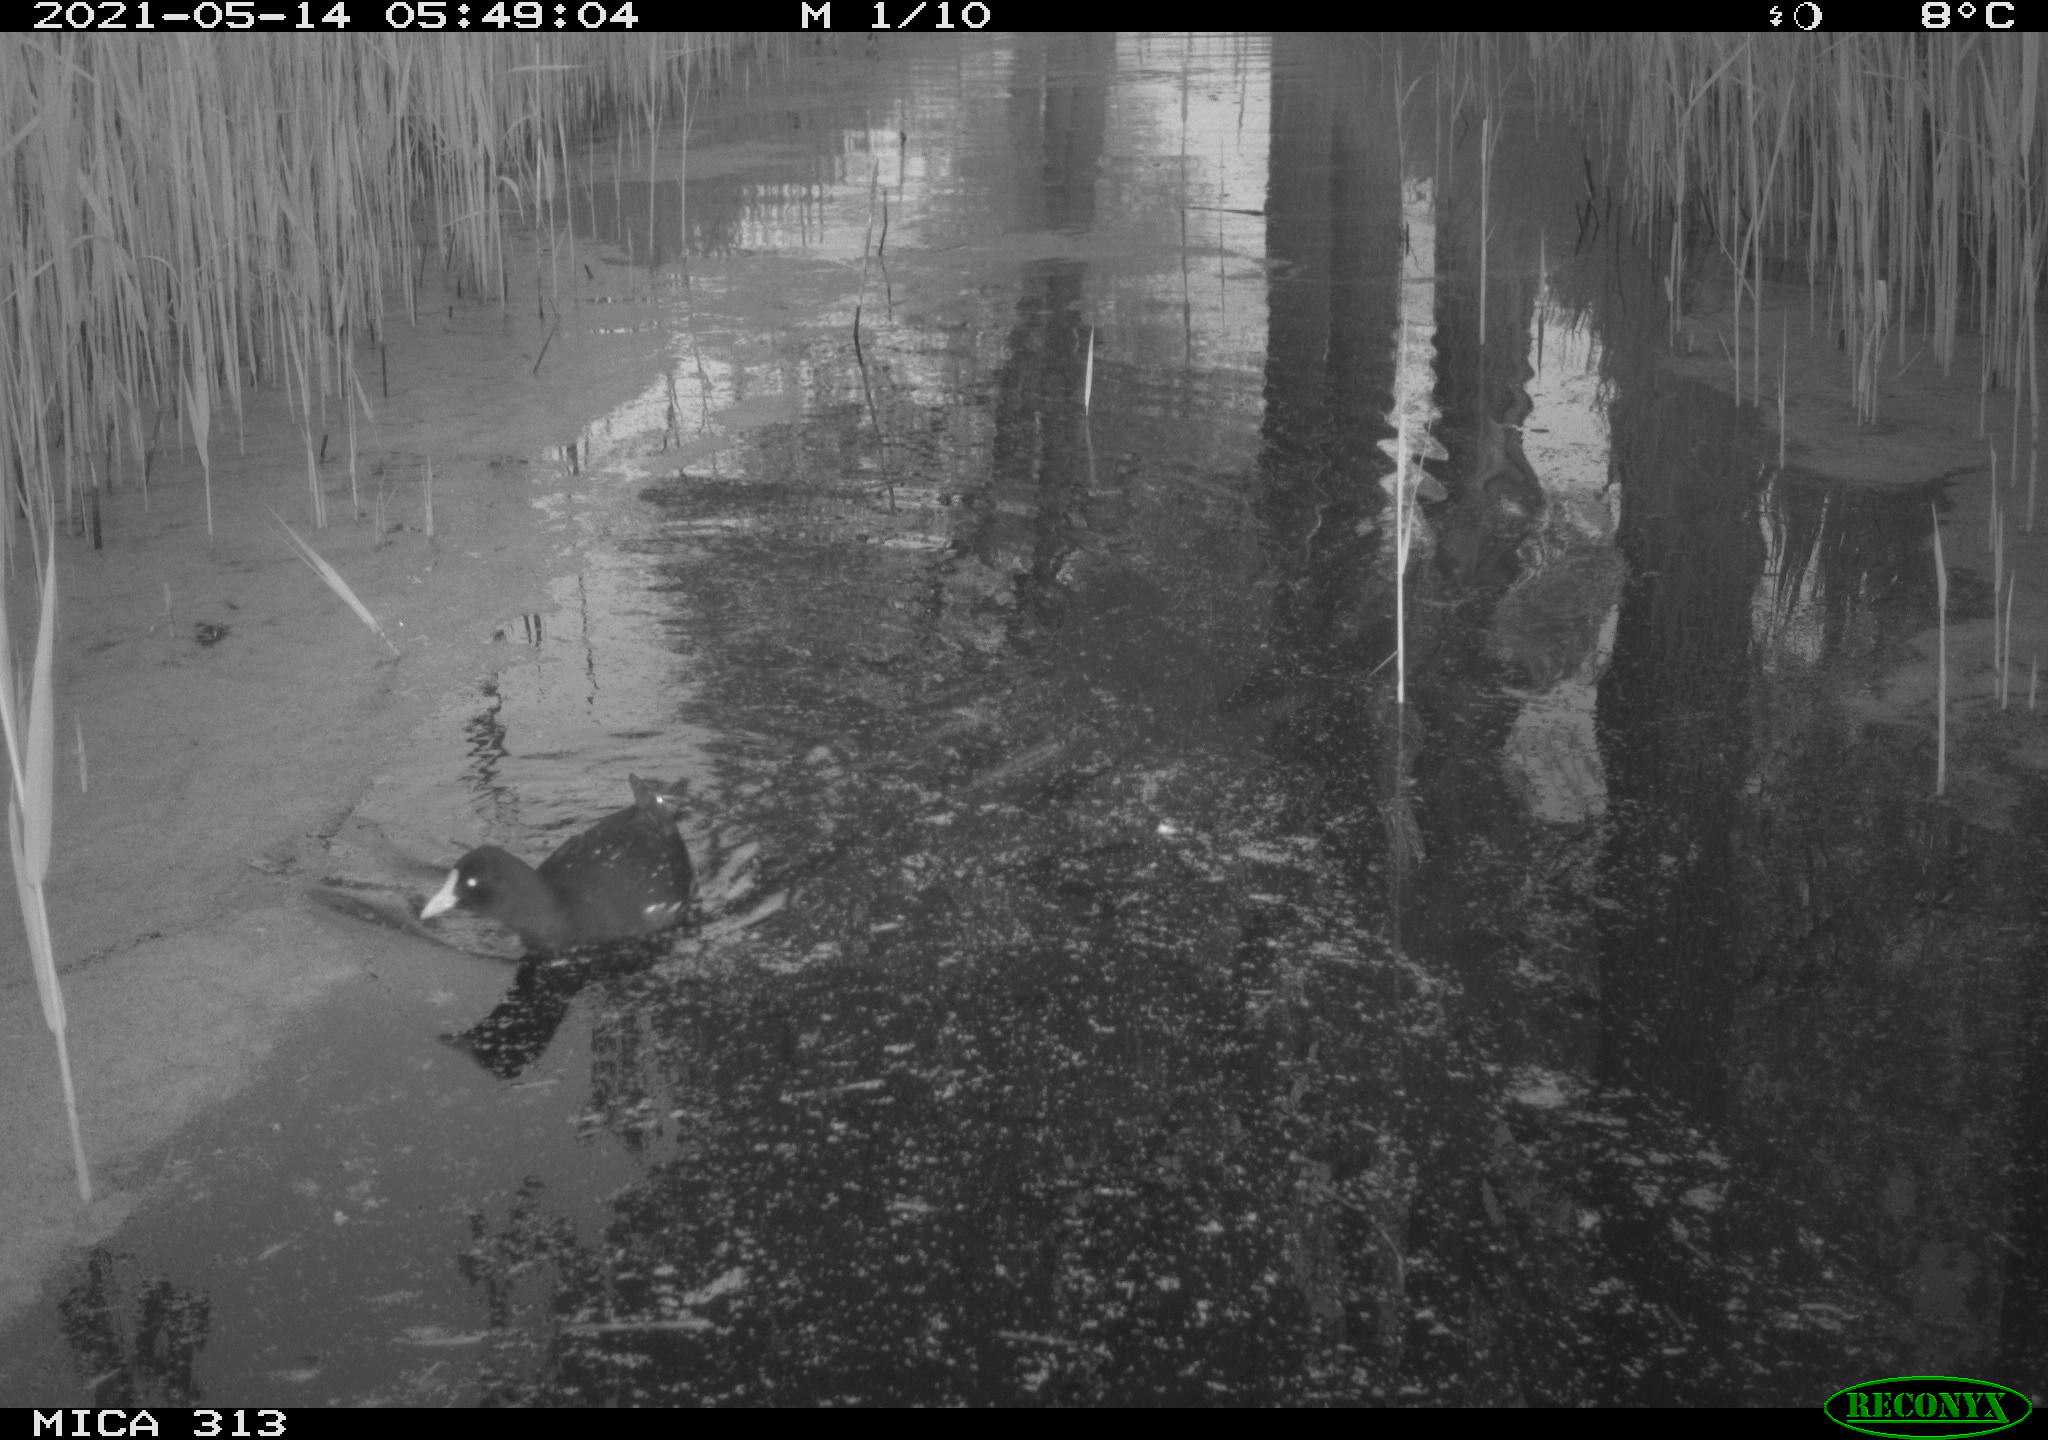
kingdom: Animalia
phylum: Chordata
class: Aves
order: Gruiformes
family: Rallidae
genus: Gallinula
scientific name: Gallinula chloropus
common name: Common moorhen
